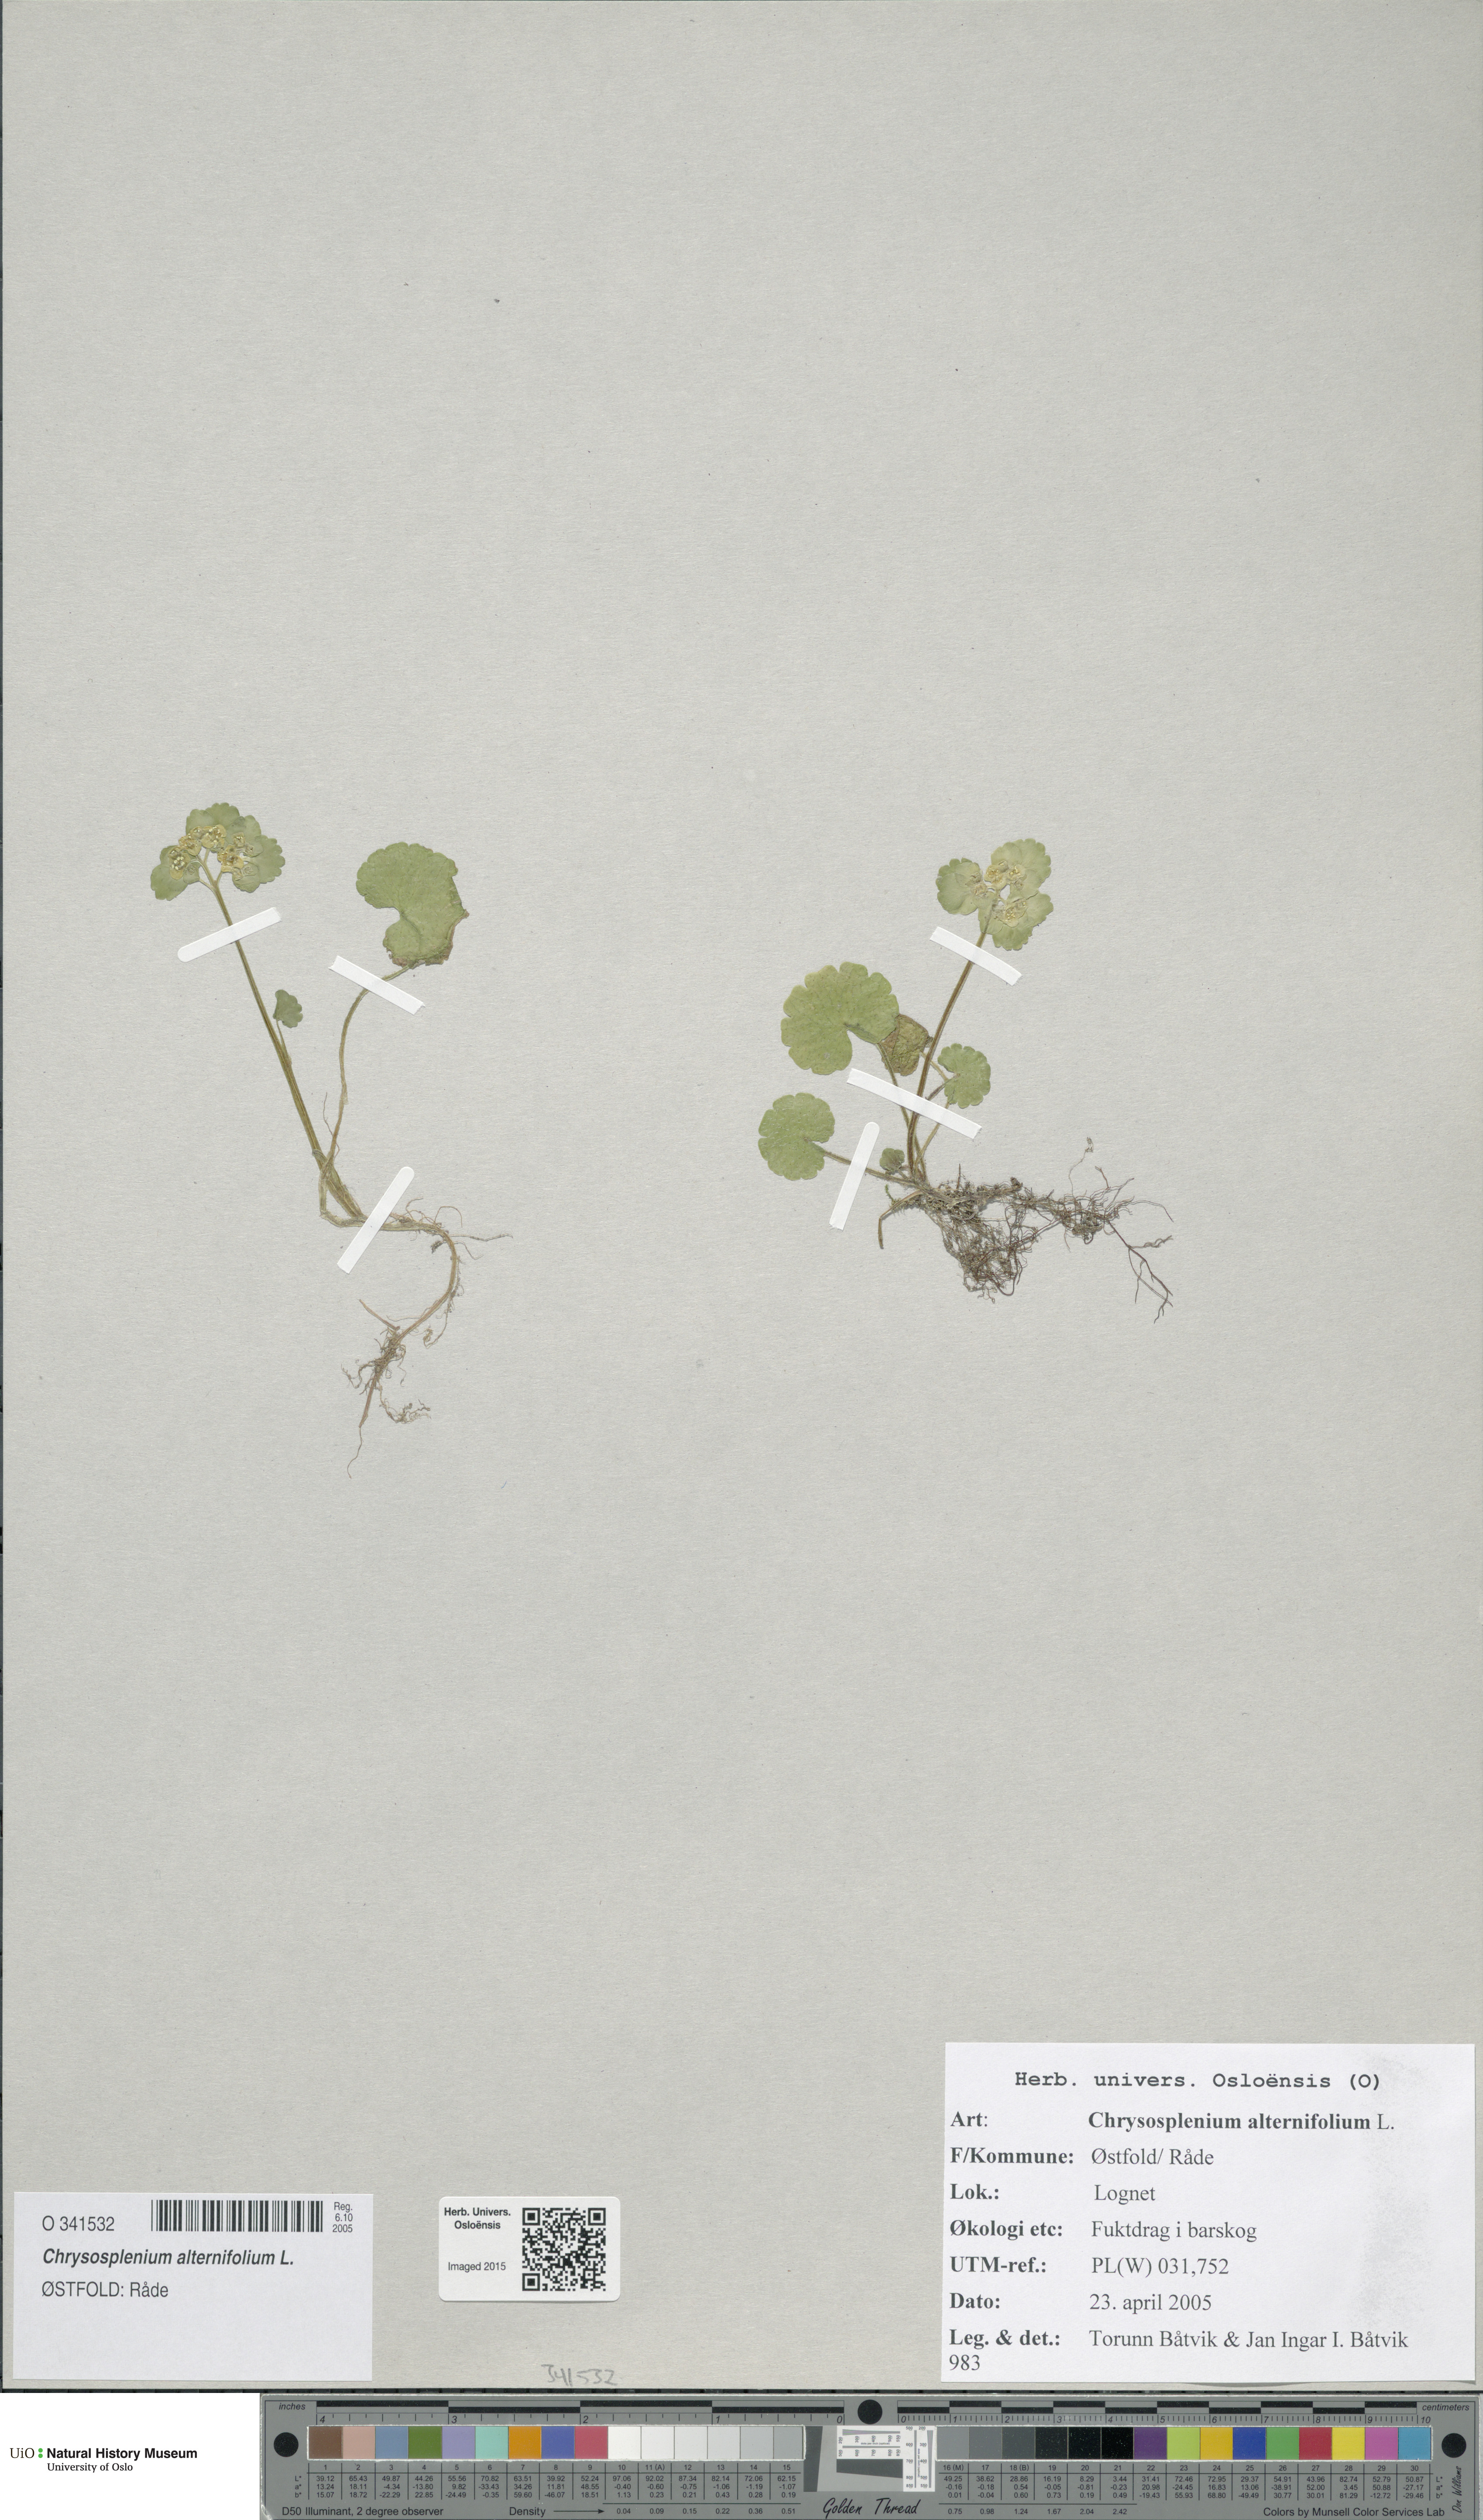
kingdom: Plantae
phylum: Tracheophyta
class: Magnoliopsida
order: Saxifragales
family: Saxifragaceae
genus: Chrysosplenium
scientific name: Chrysosplenium alternifolium
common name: Alternate-leaved golden-saxifrage
